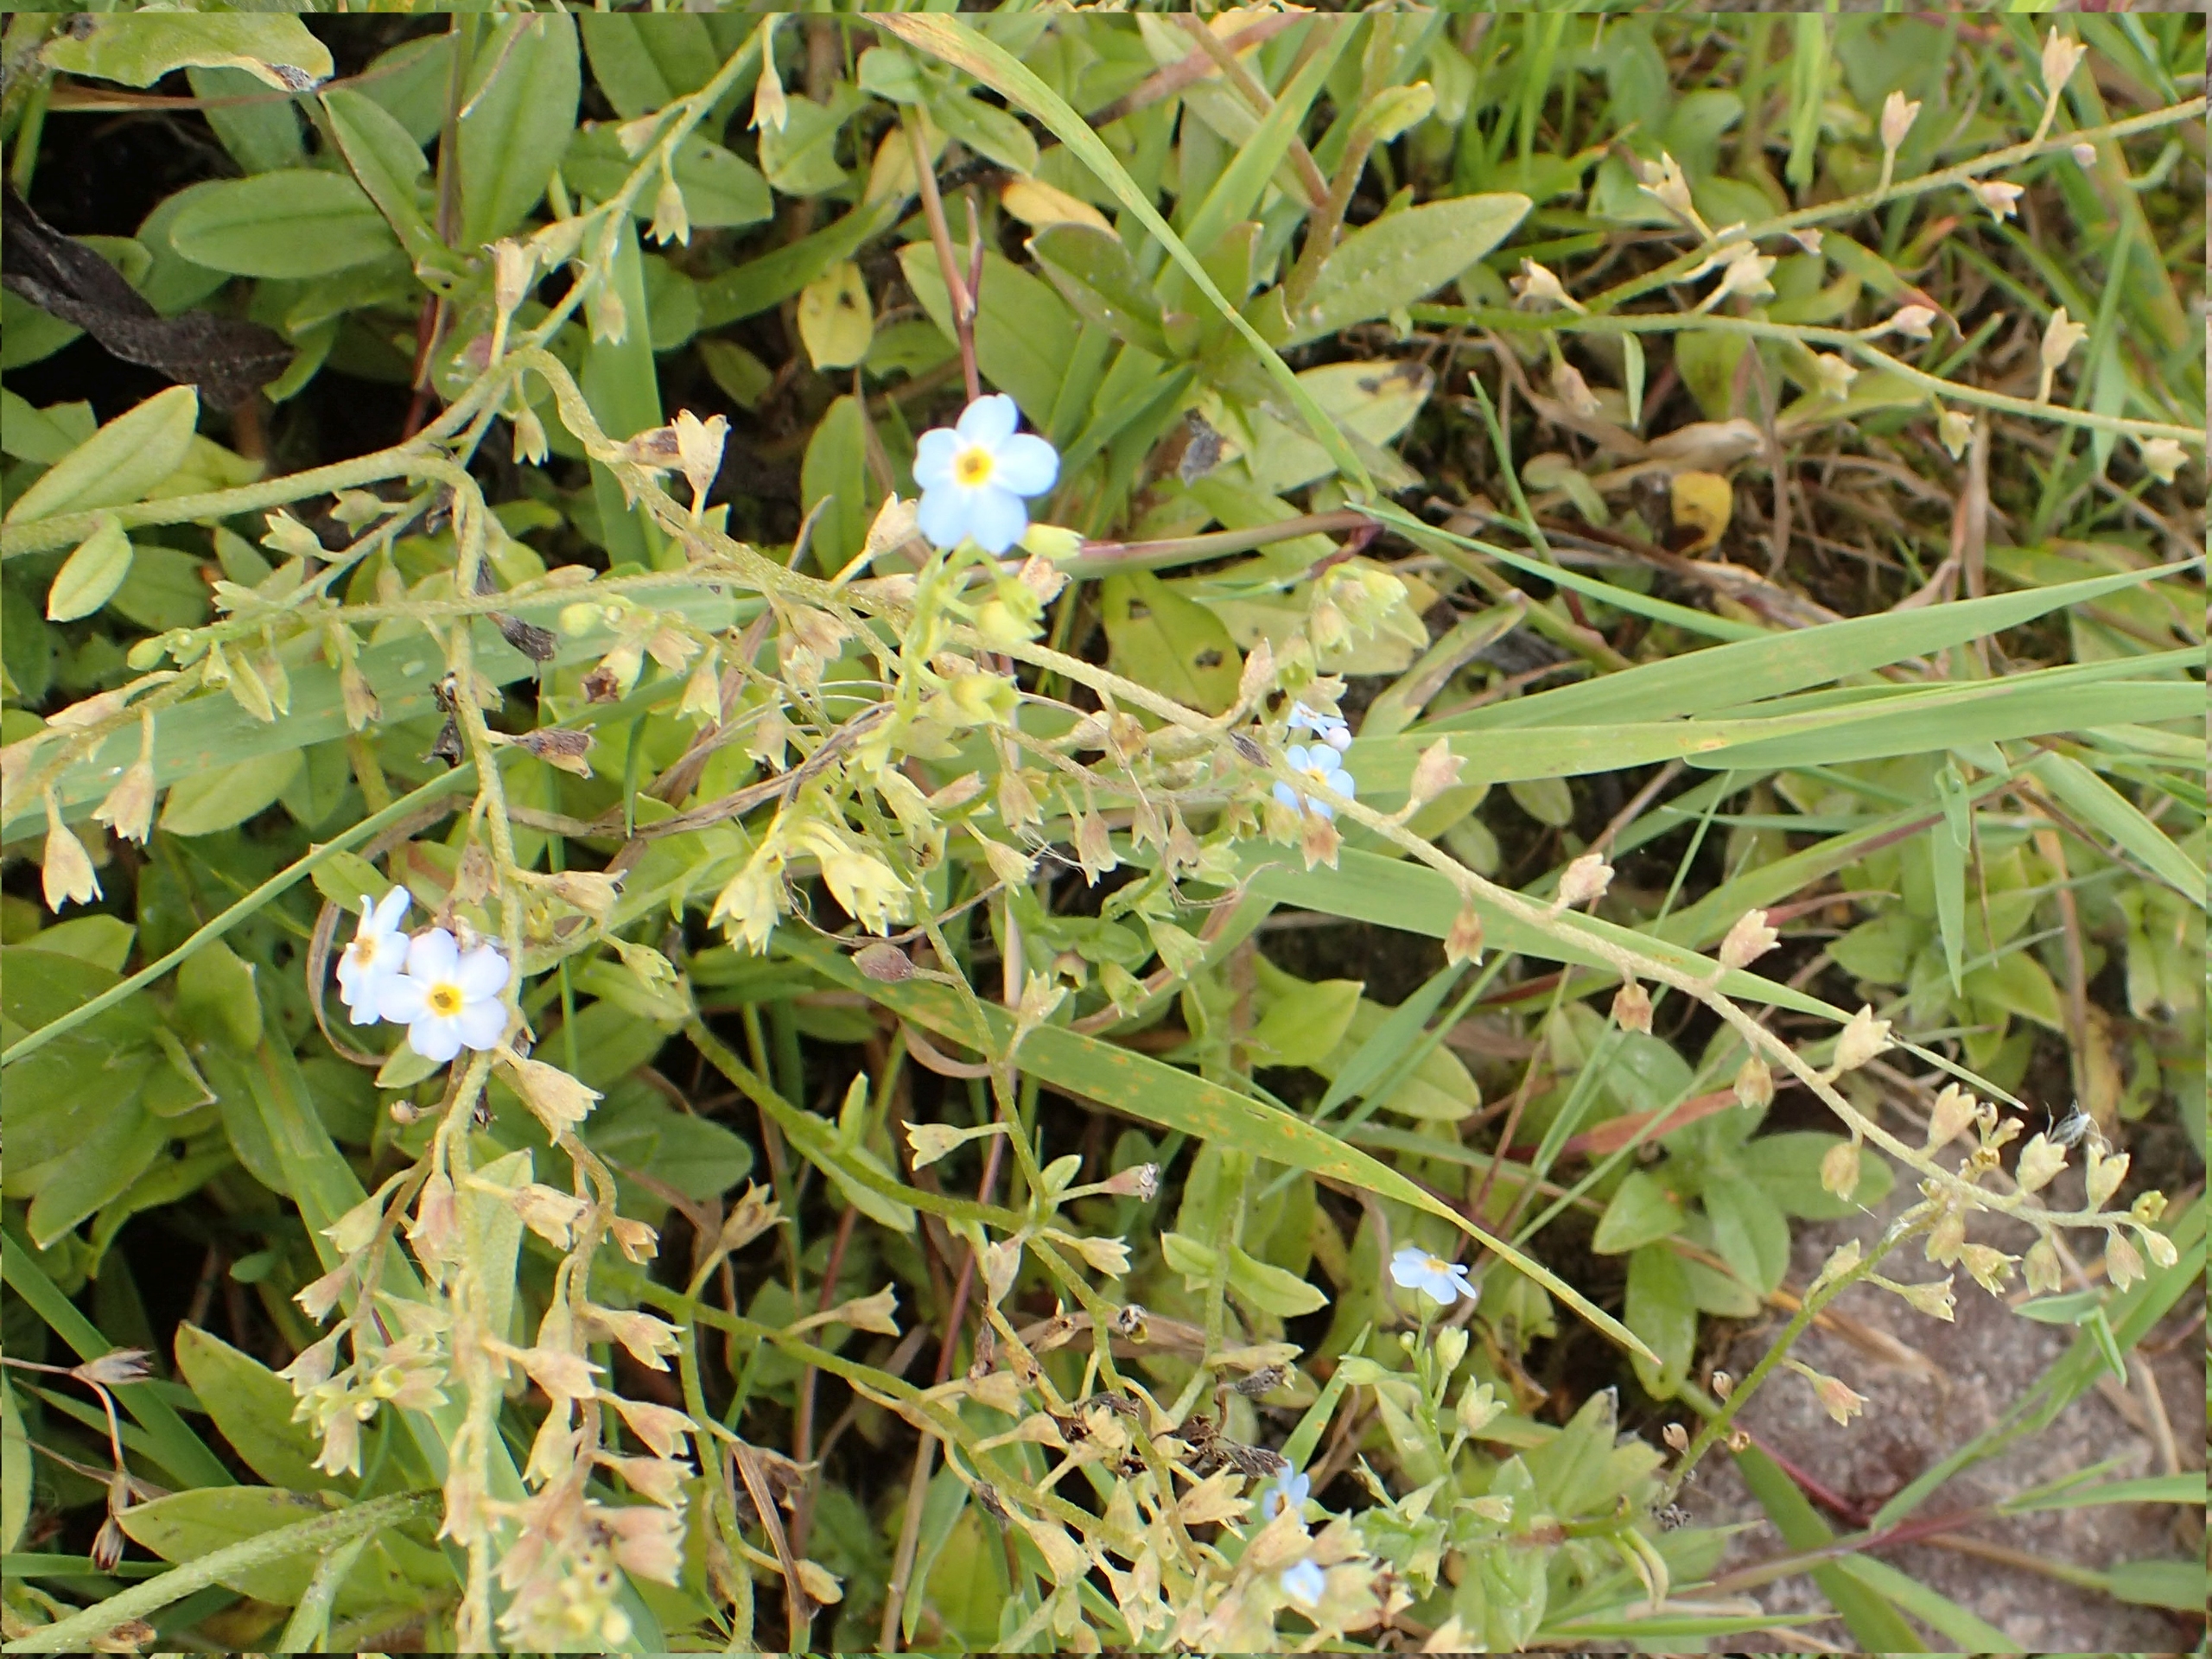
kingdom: Plantae
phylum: Tracheophyta
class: Magnoliopsida
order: Boraginales
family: Boraginaceae
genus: Myosotis
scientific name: Myosotis scorpioides
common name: Eng-forglemmigej
